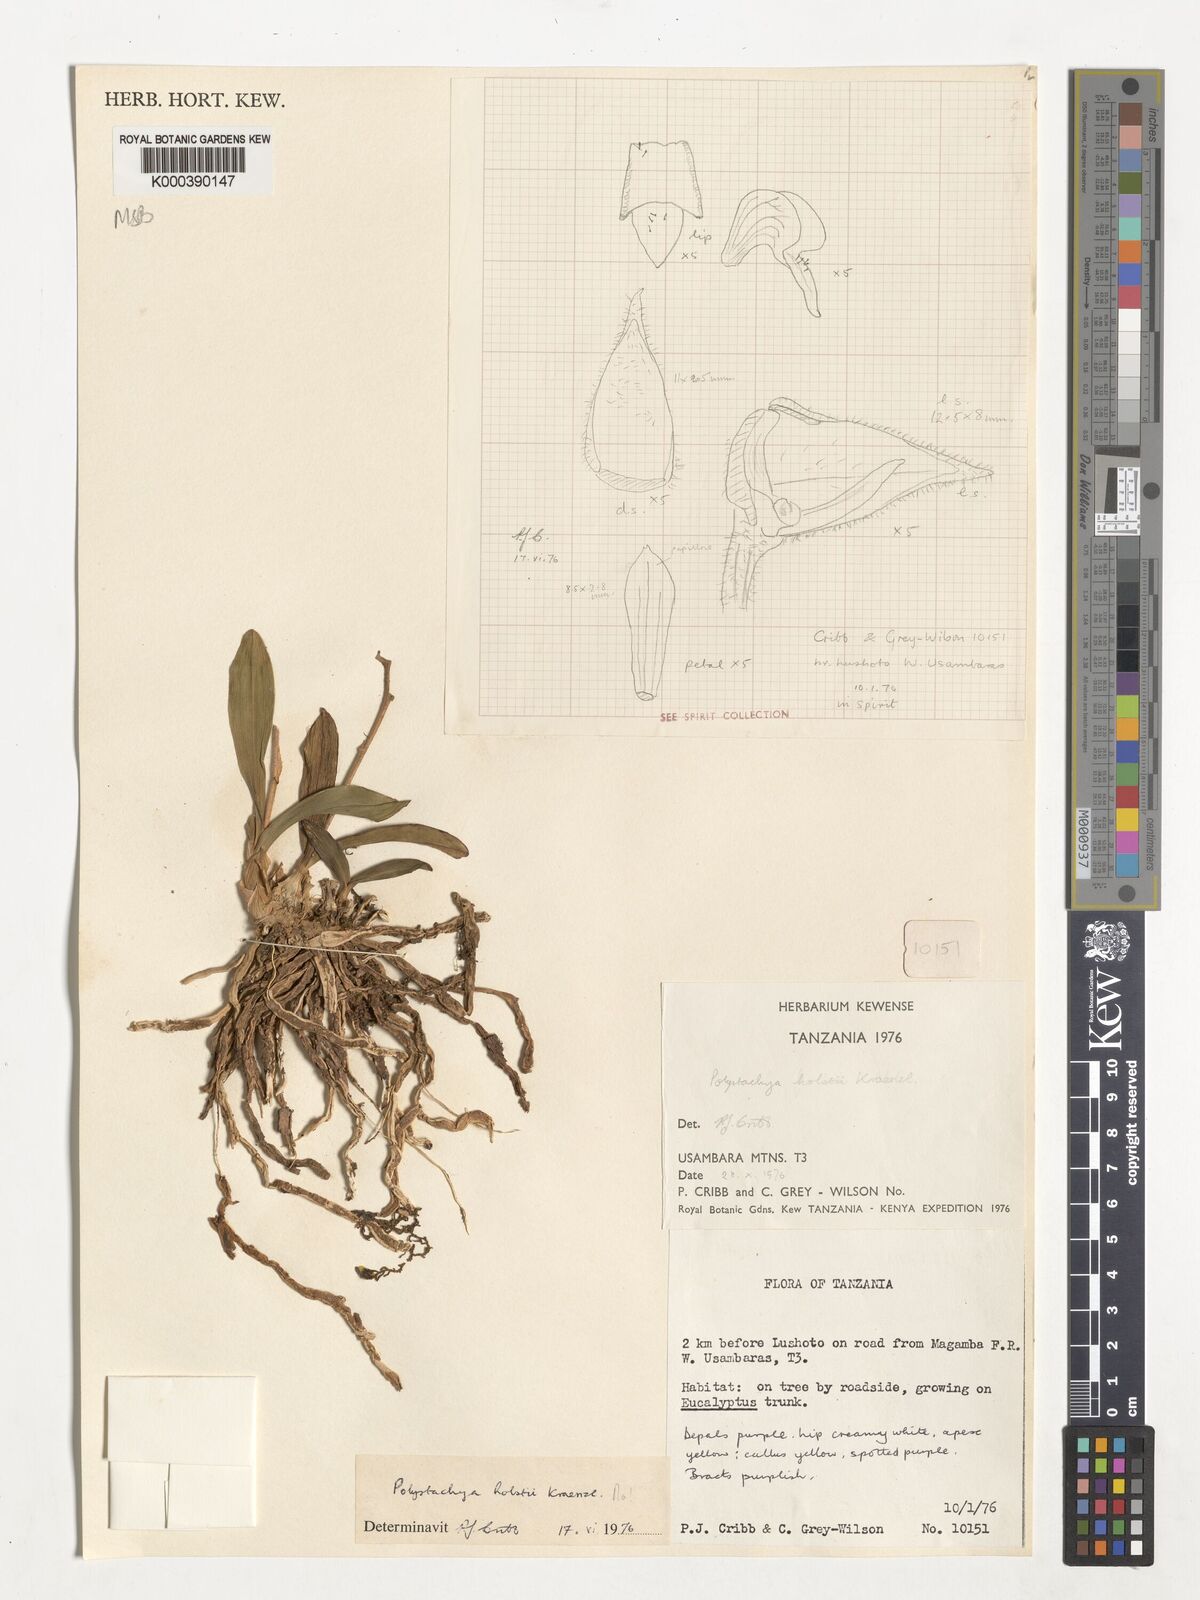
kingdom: Plantae
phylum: Tracheophyta
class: Liliopsida
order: Asparagales
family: Orchidaceae
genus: Polystachya
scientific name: Polystachya holstii
